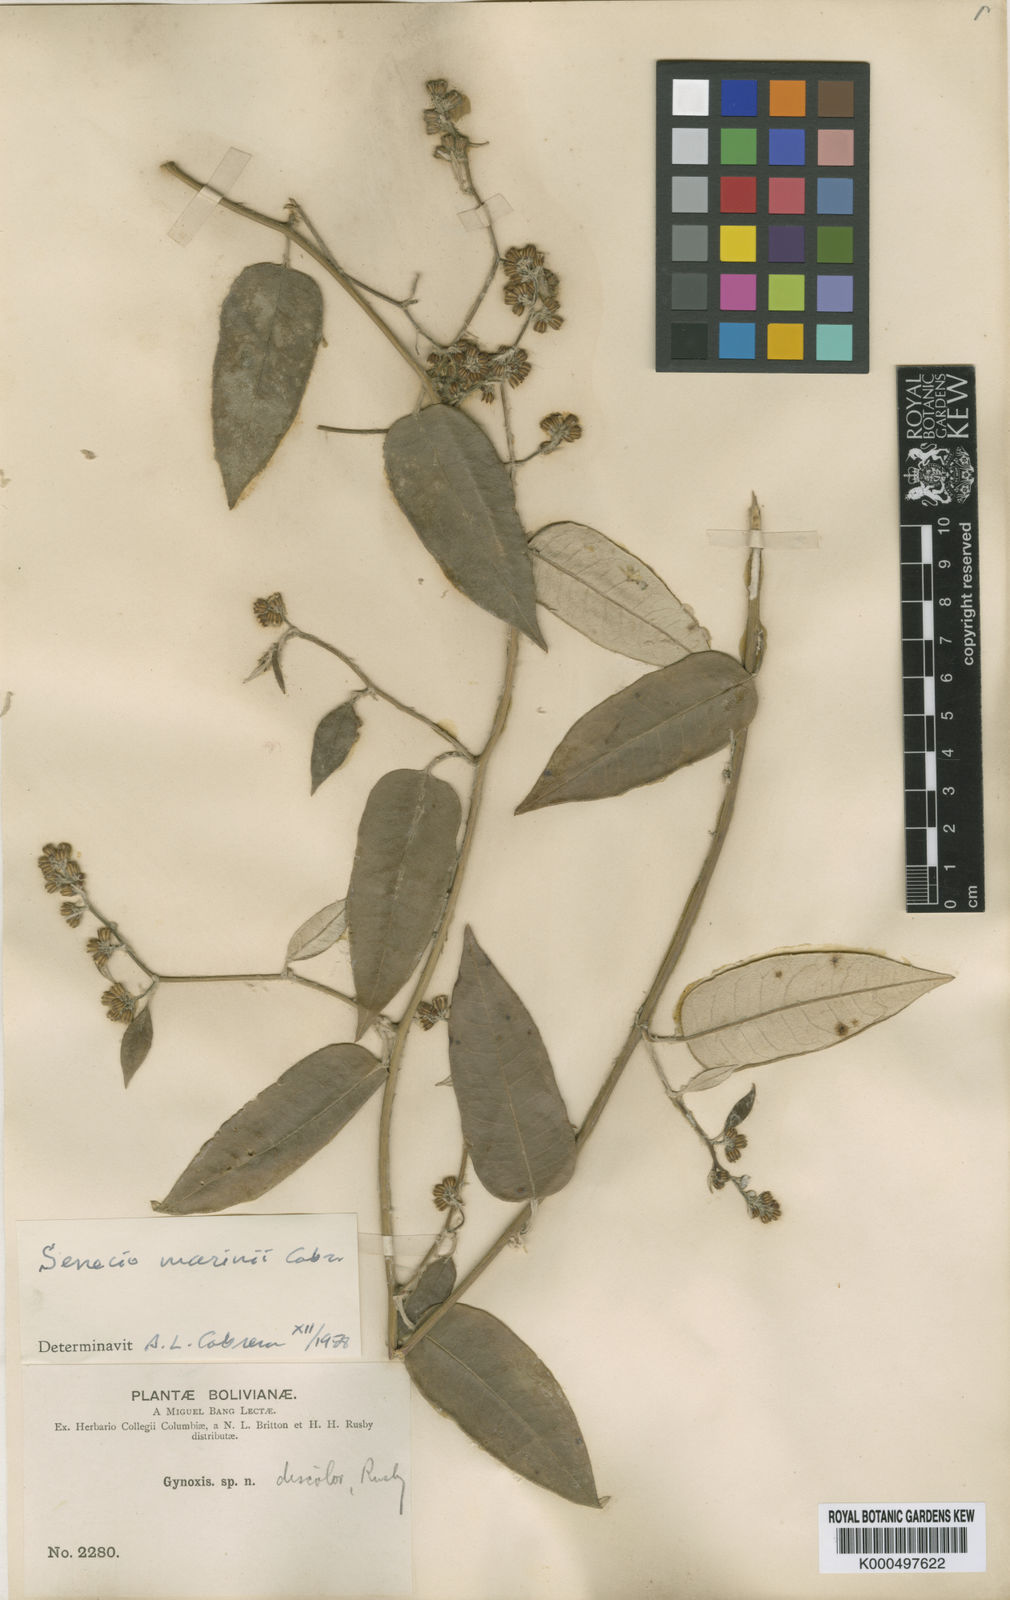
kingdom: Plantae
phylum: Tracheophyta
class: Magnoliopsida
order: Asterales
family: Asteraceae
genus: Pentacalia
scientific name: Pentacalia herzogii
